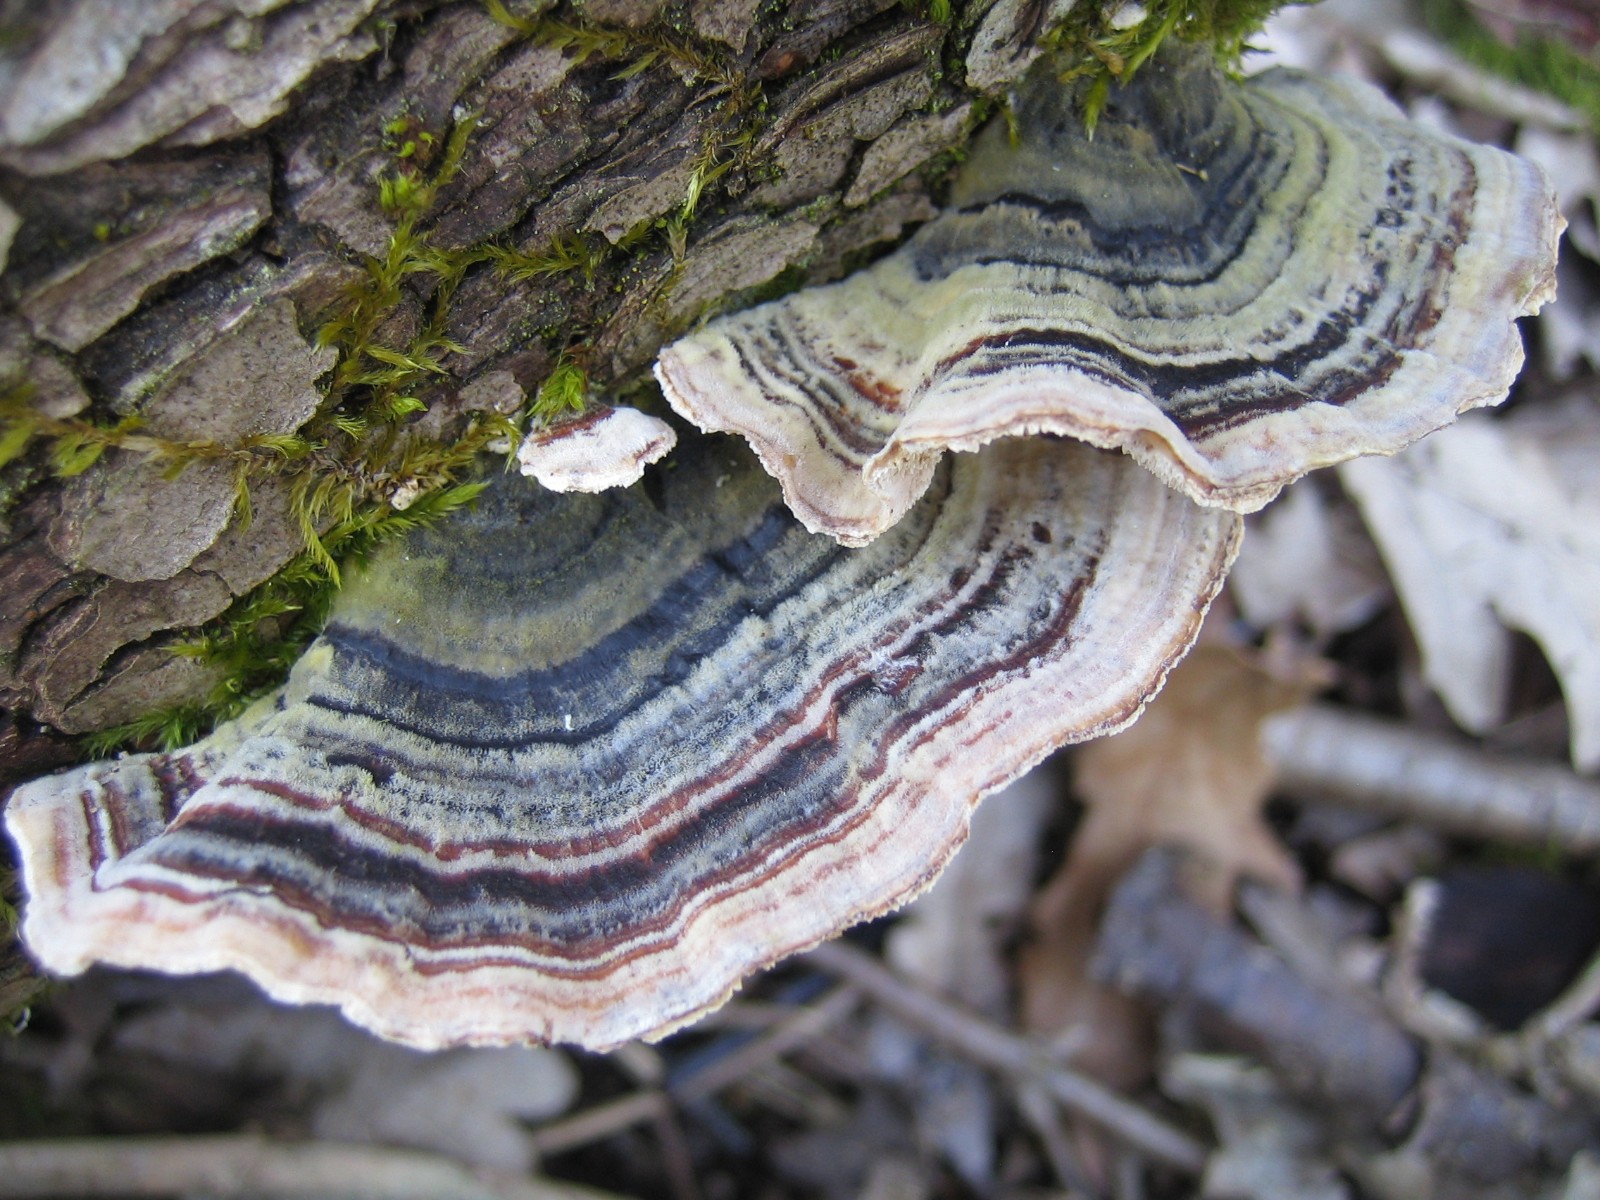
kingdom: Fungi
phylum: Basidiomycota
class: Agaricomycetes
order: Polyporales
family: Polyporaceae
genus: Trametes
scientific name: Trametes versicolor
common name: broget læderporesvamp
